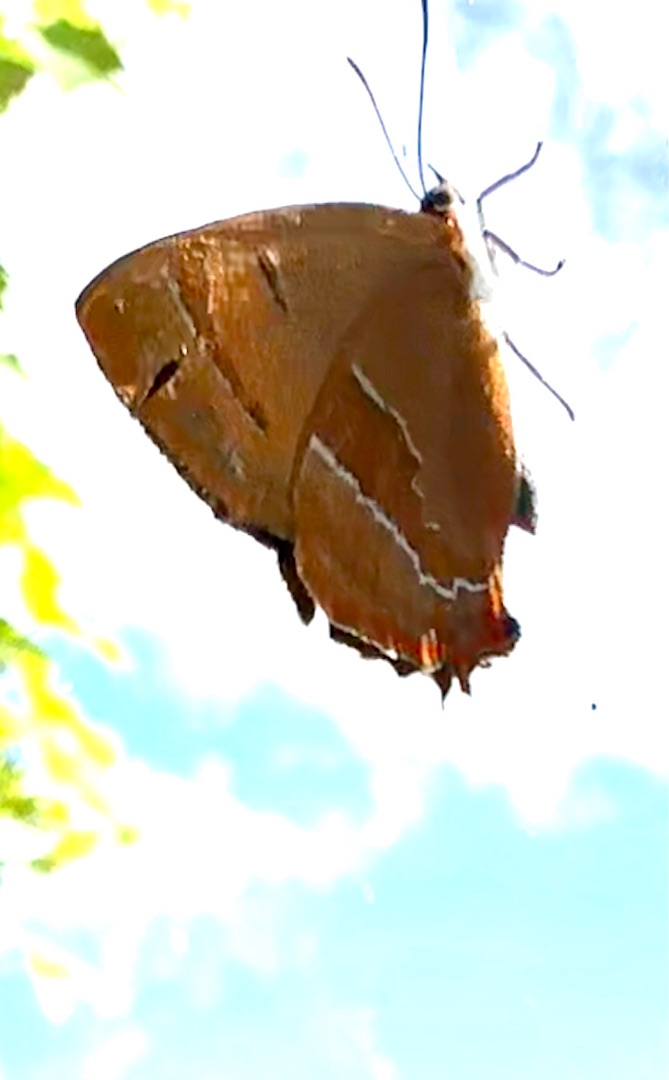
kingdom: Animalia
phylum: Arthropoda
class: Insecta
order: Lepidoptera
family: Lycaenidae
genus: Thecla
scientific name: Thecla betulae
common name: Guldhale
